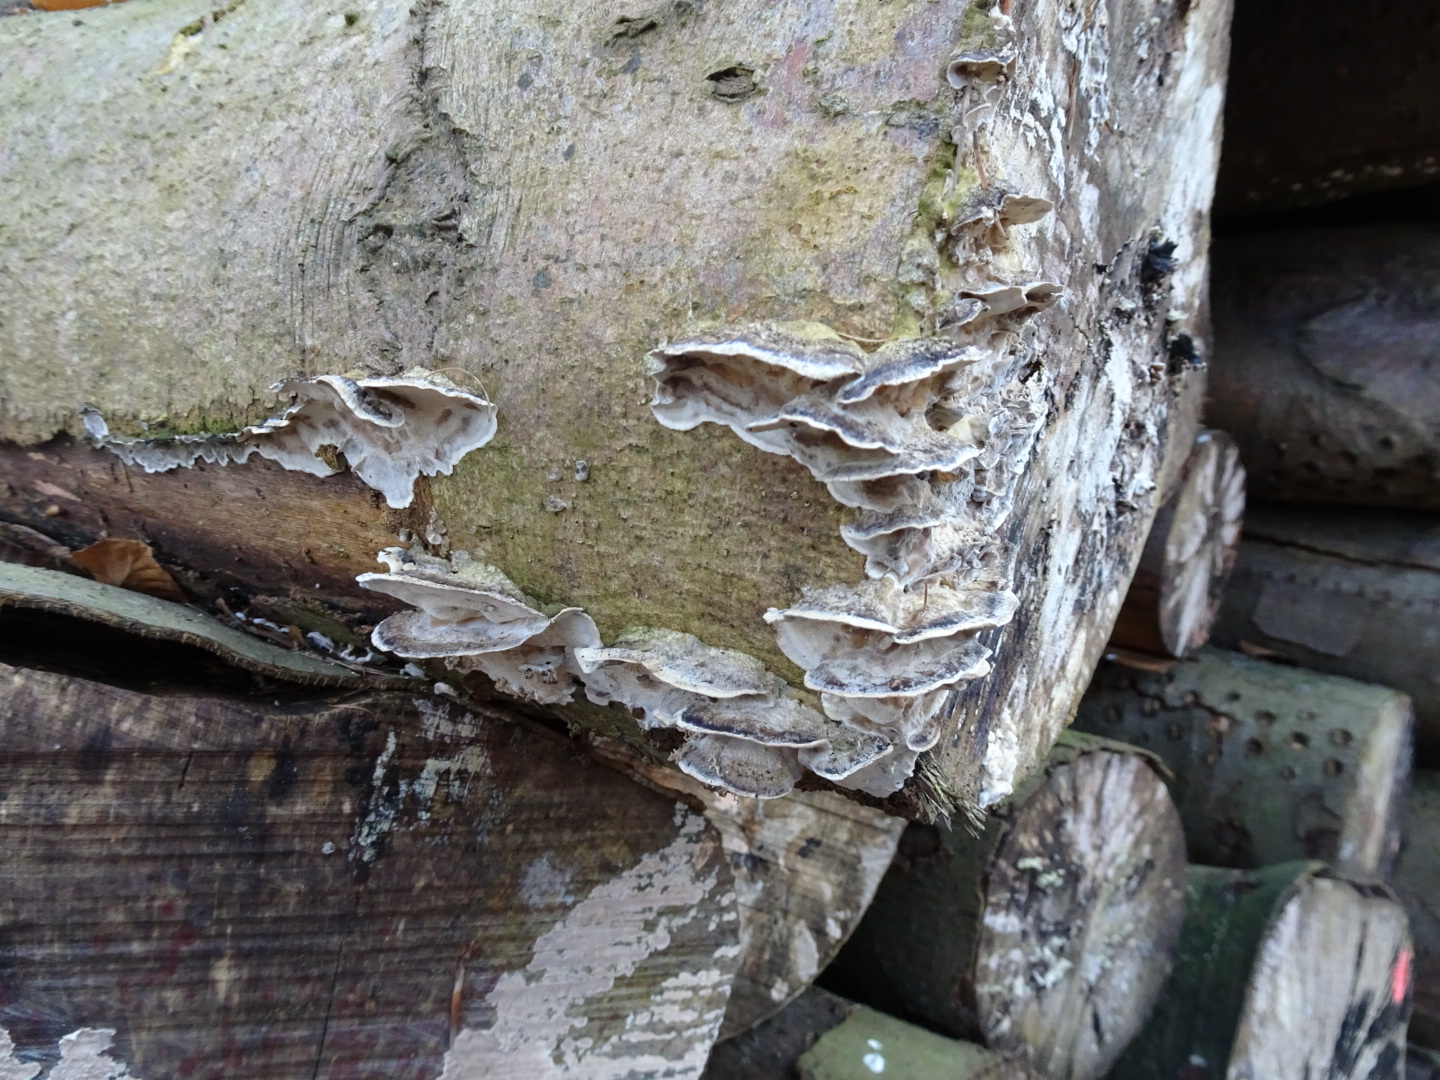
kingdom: Fungi
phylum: Basidiomycota
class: Agaricomycetes
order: Polyporales
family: Phanerochaetaceae
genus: Bjerkandera
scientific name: Bjerkandera adusta
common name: sveden sodporesvamp
